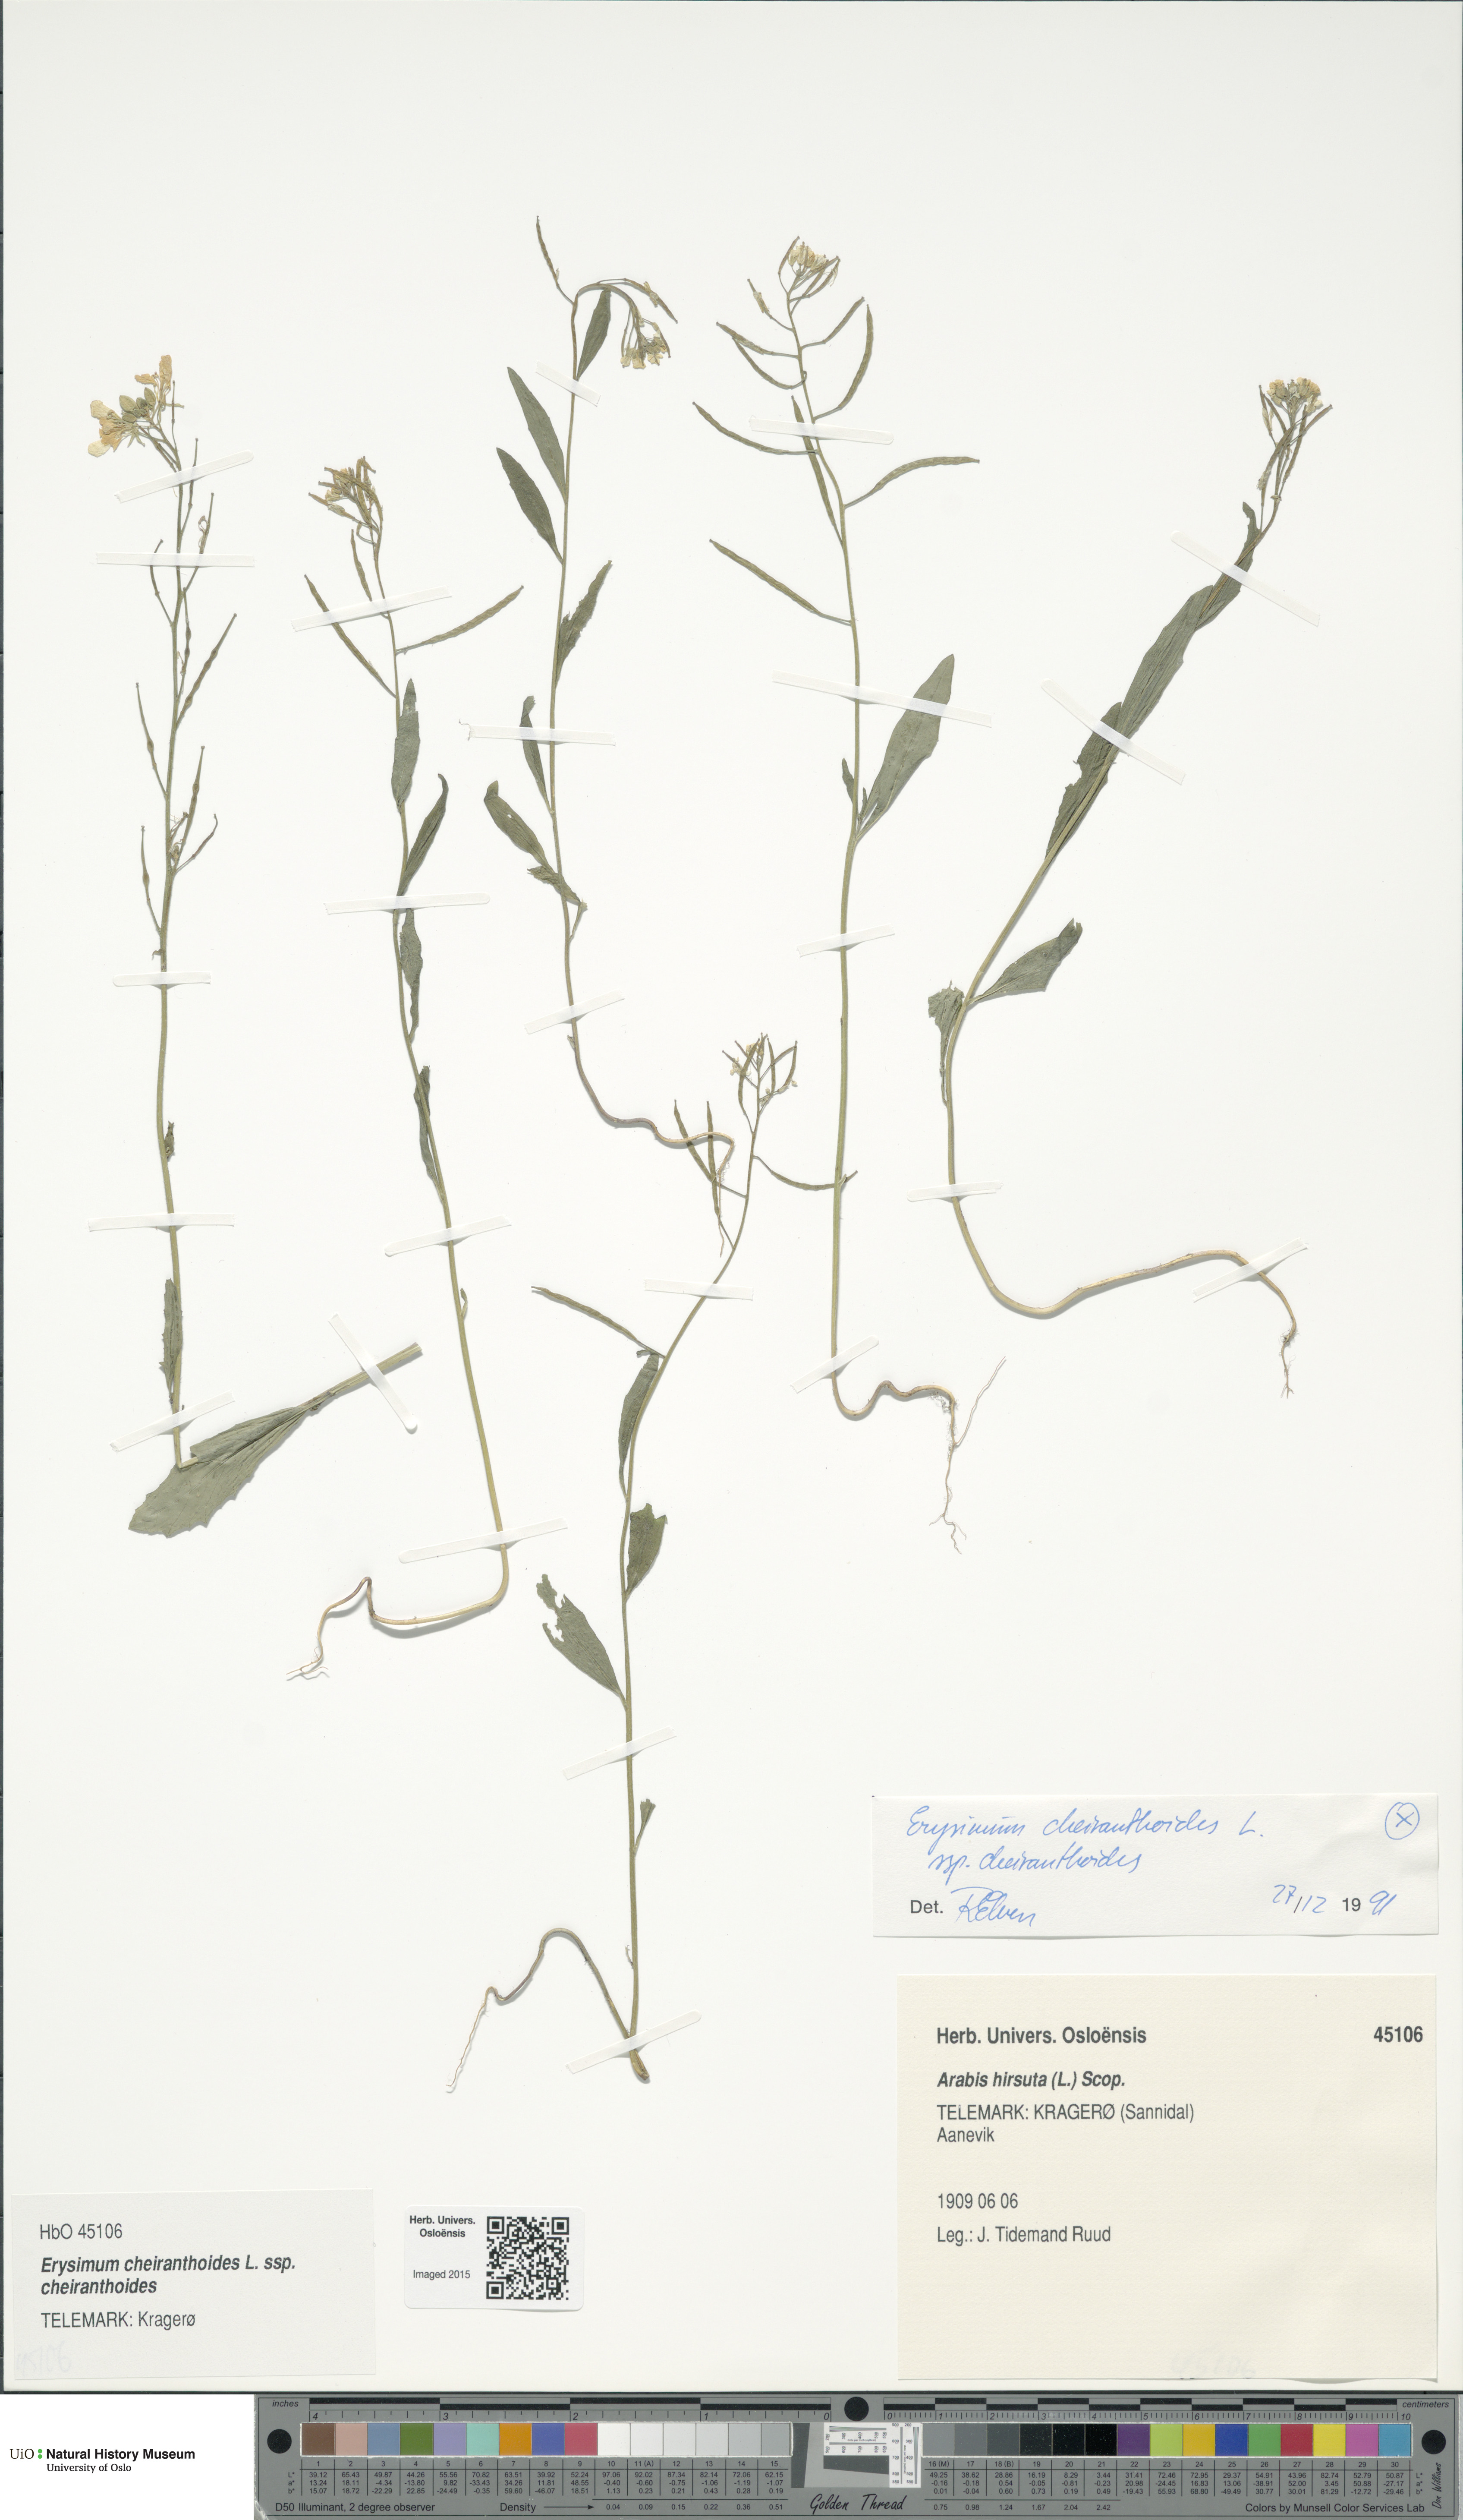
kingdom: Plantae
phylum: Tracheophyta
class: Magnoliopsida
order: Brassicales
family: Brassicaceae
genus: Erysimum
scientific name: Erysimum cheiranthoides
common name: Treacle mustard
